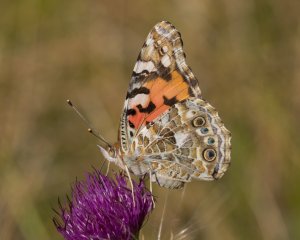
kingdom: Animalia
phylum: Arthropoda
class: Insecta
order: Lepidoptera
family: Nymphalidae
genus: Vanessa
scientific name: Vanessa cardui
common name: Painted Lady
